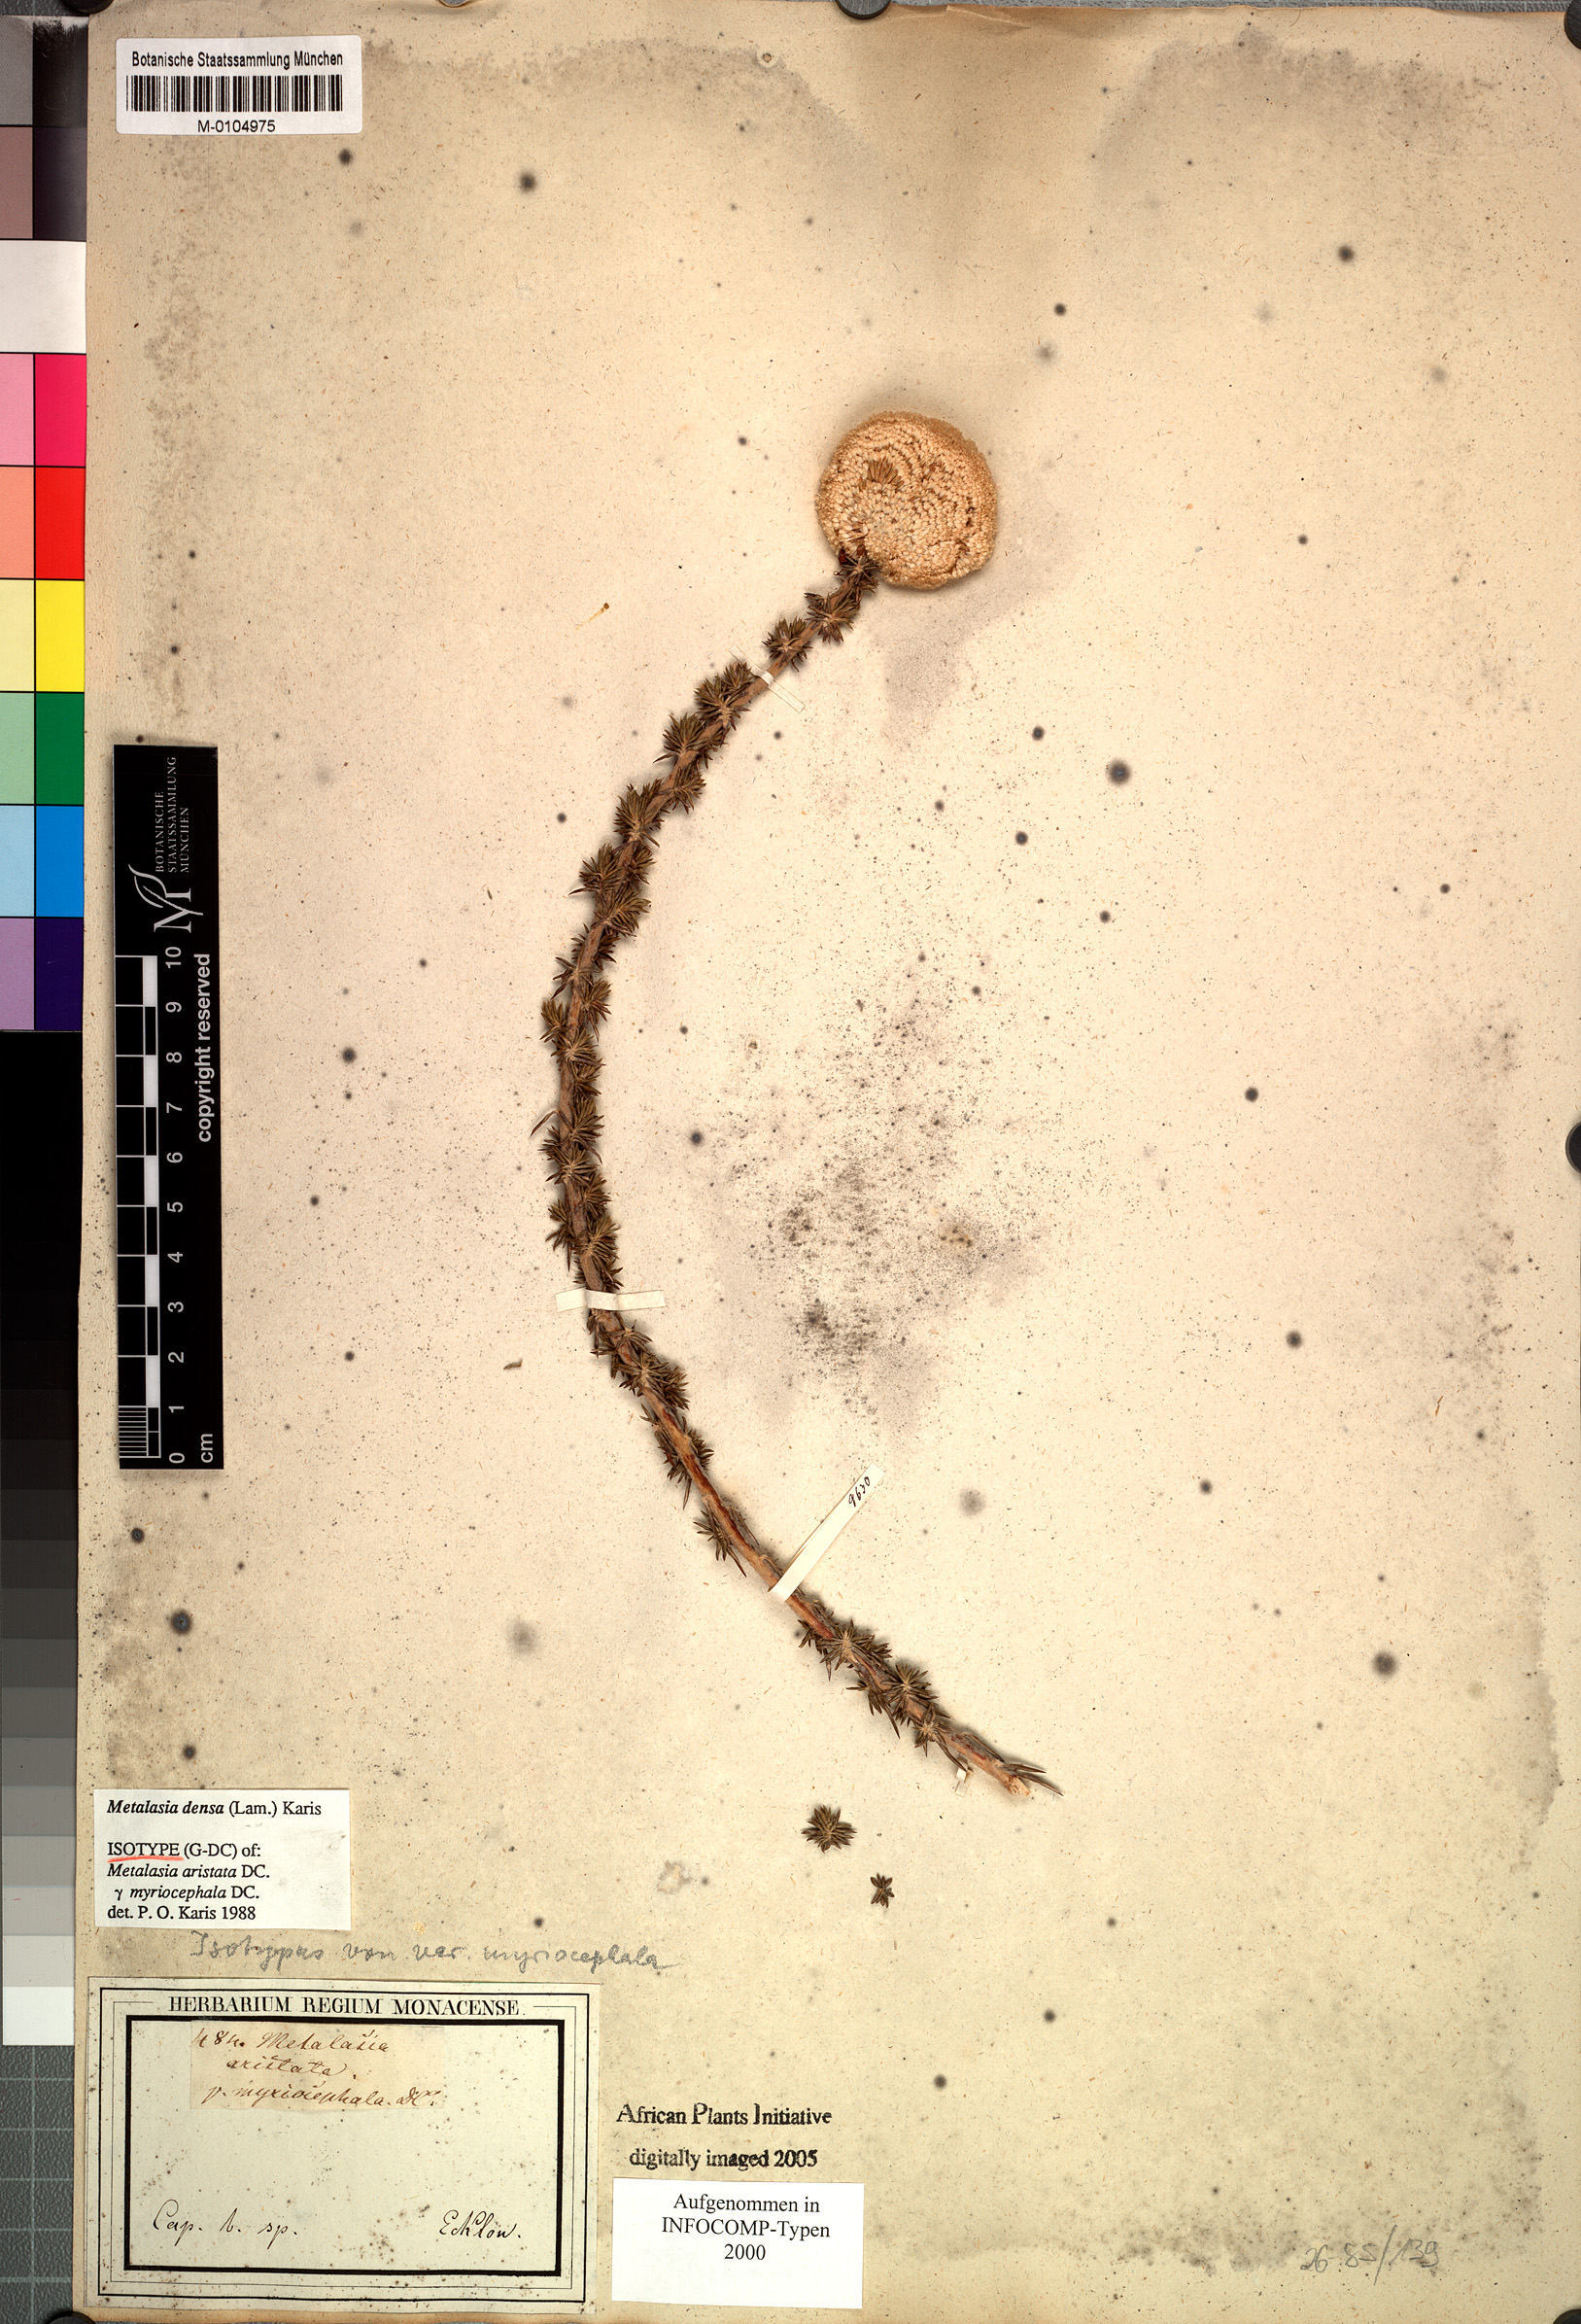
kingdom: Plantae
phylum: Tracheophyta
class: Magnoliopsida
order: Asterales
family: Asteraceae
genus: Metalasia
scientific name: Metalasia densa
